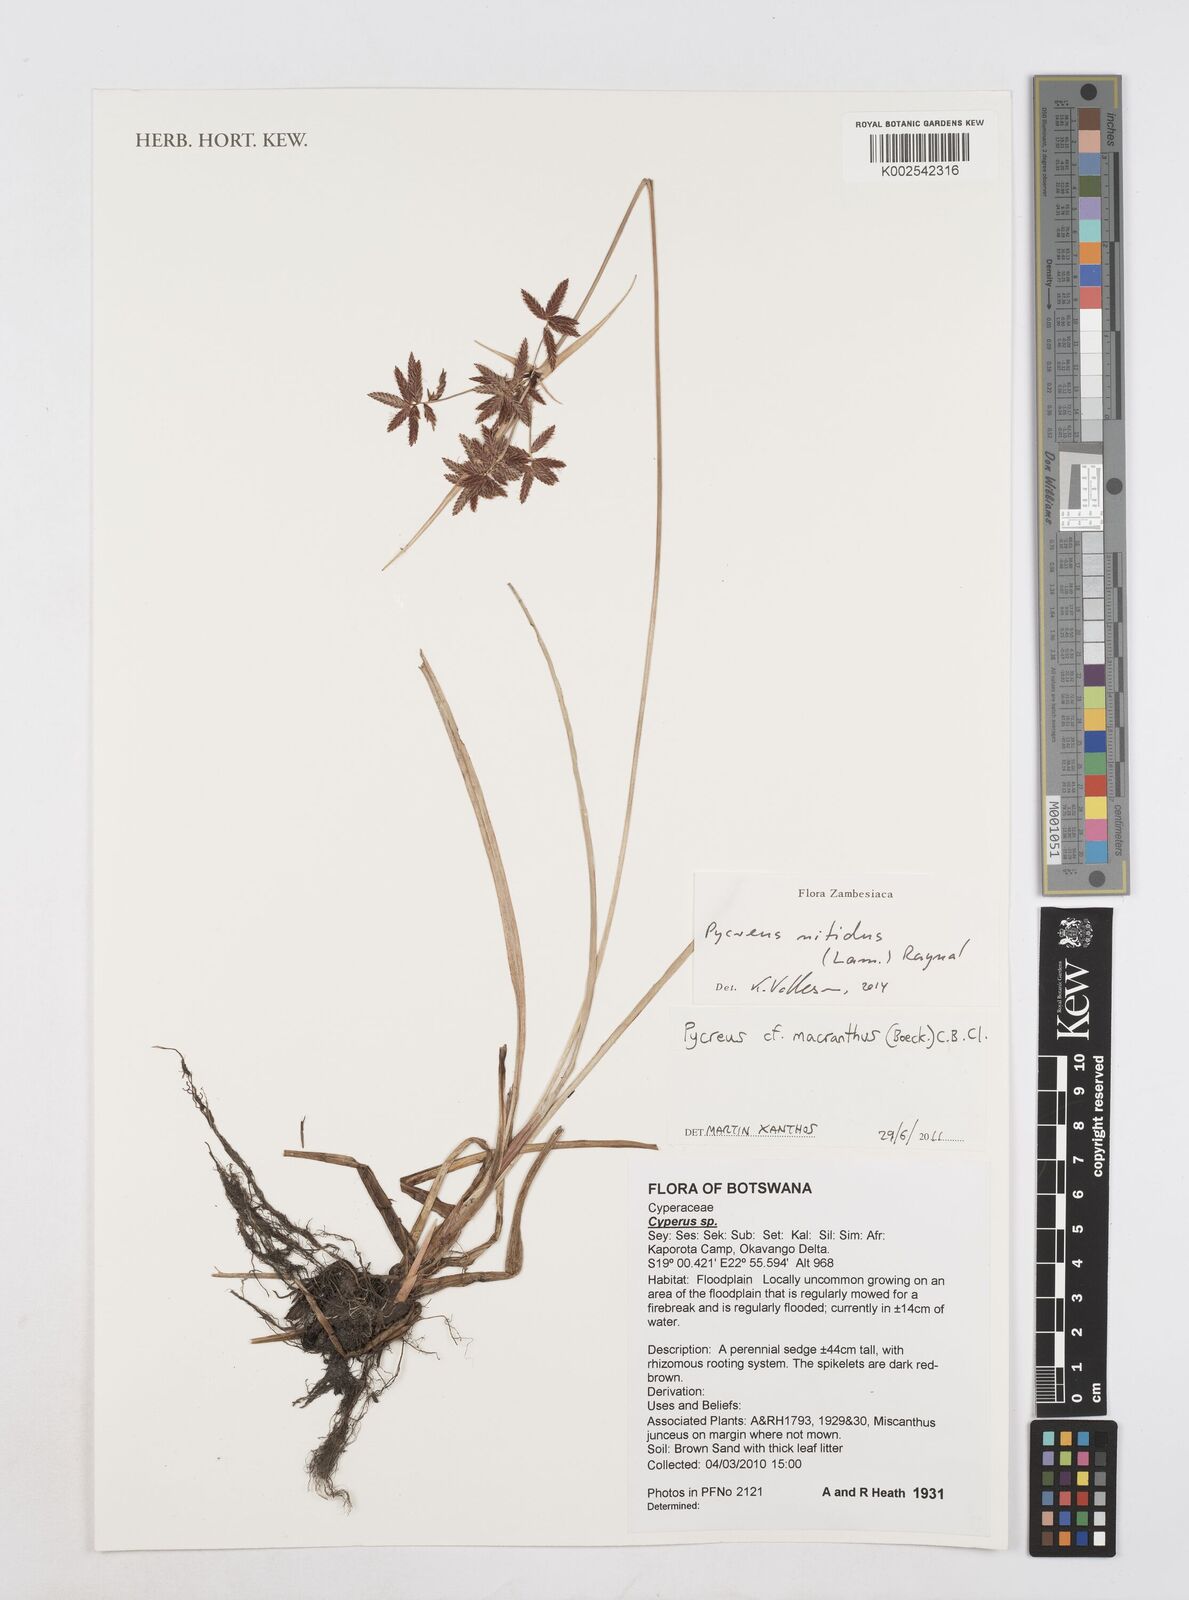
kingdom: Plantae
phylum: Tracheophyta
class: Liliopsida
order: Poales
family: Cyperaceae
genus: Cyperus
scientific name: Cyperus nitidus
